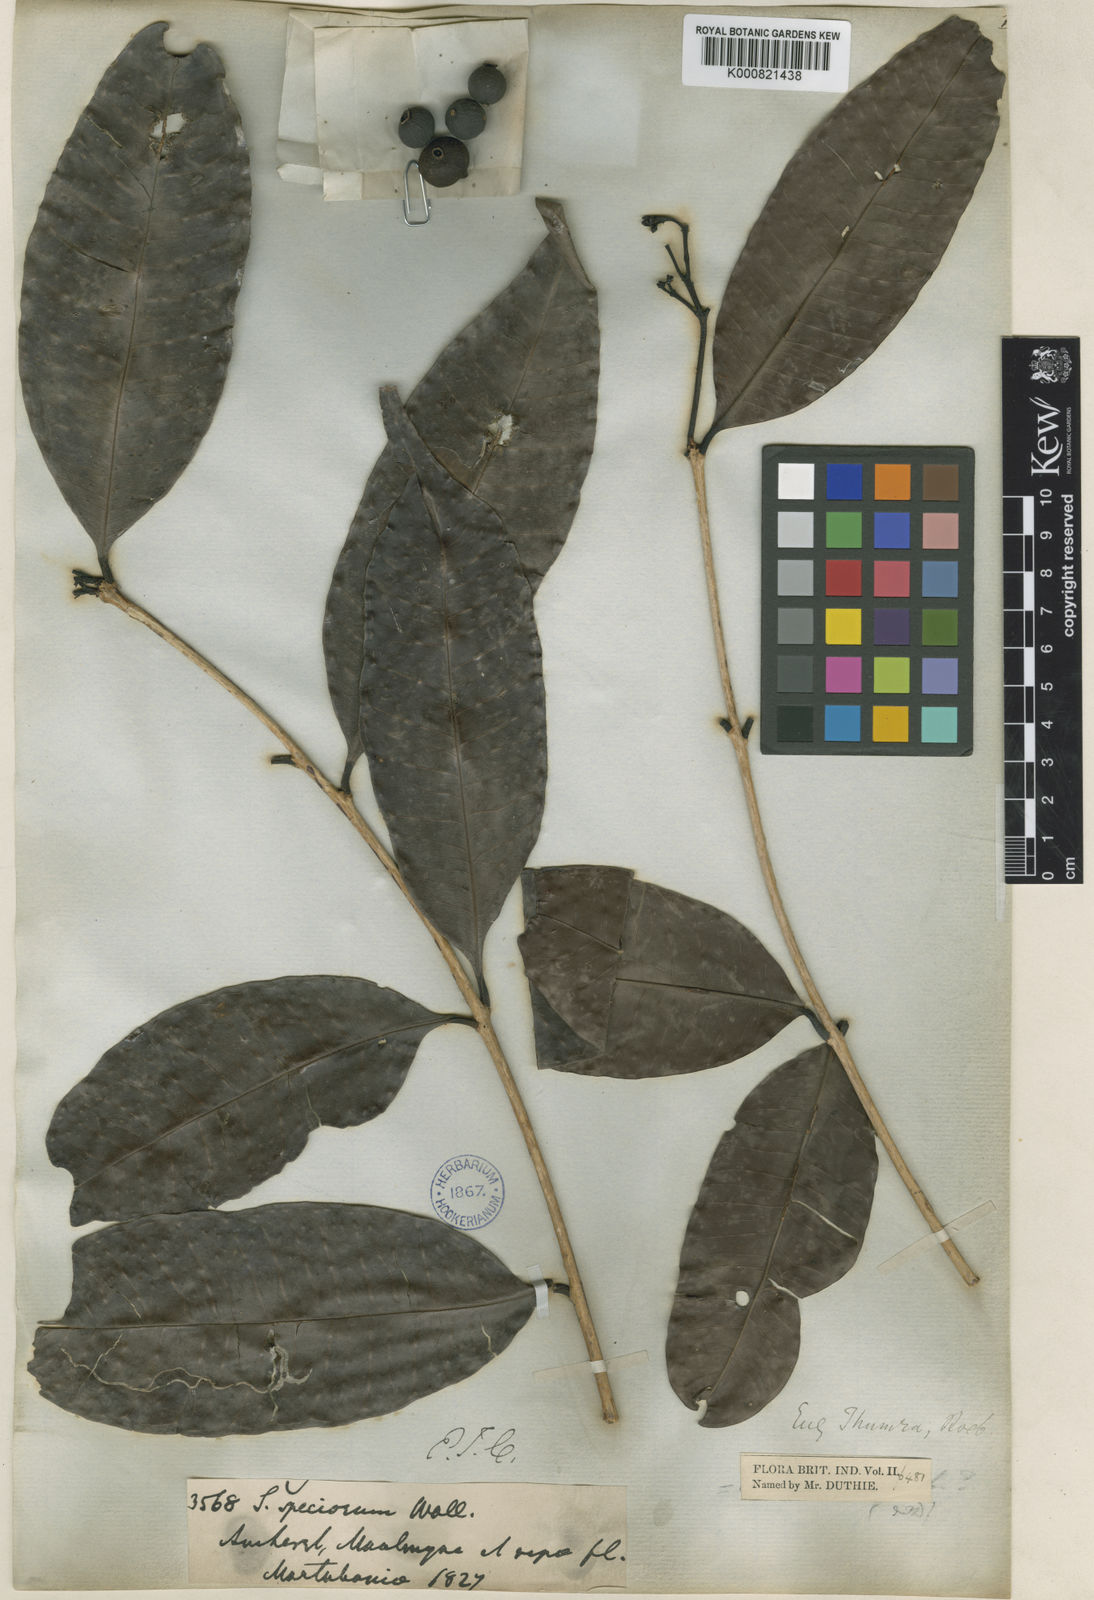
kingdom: Plantae
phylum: Tracheophyta
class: Magnoliopsida
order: Myrtales
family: Myrtaceae
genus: Syzygium
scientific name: Syzygium
